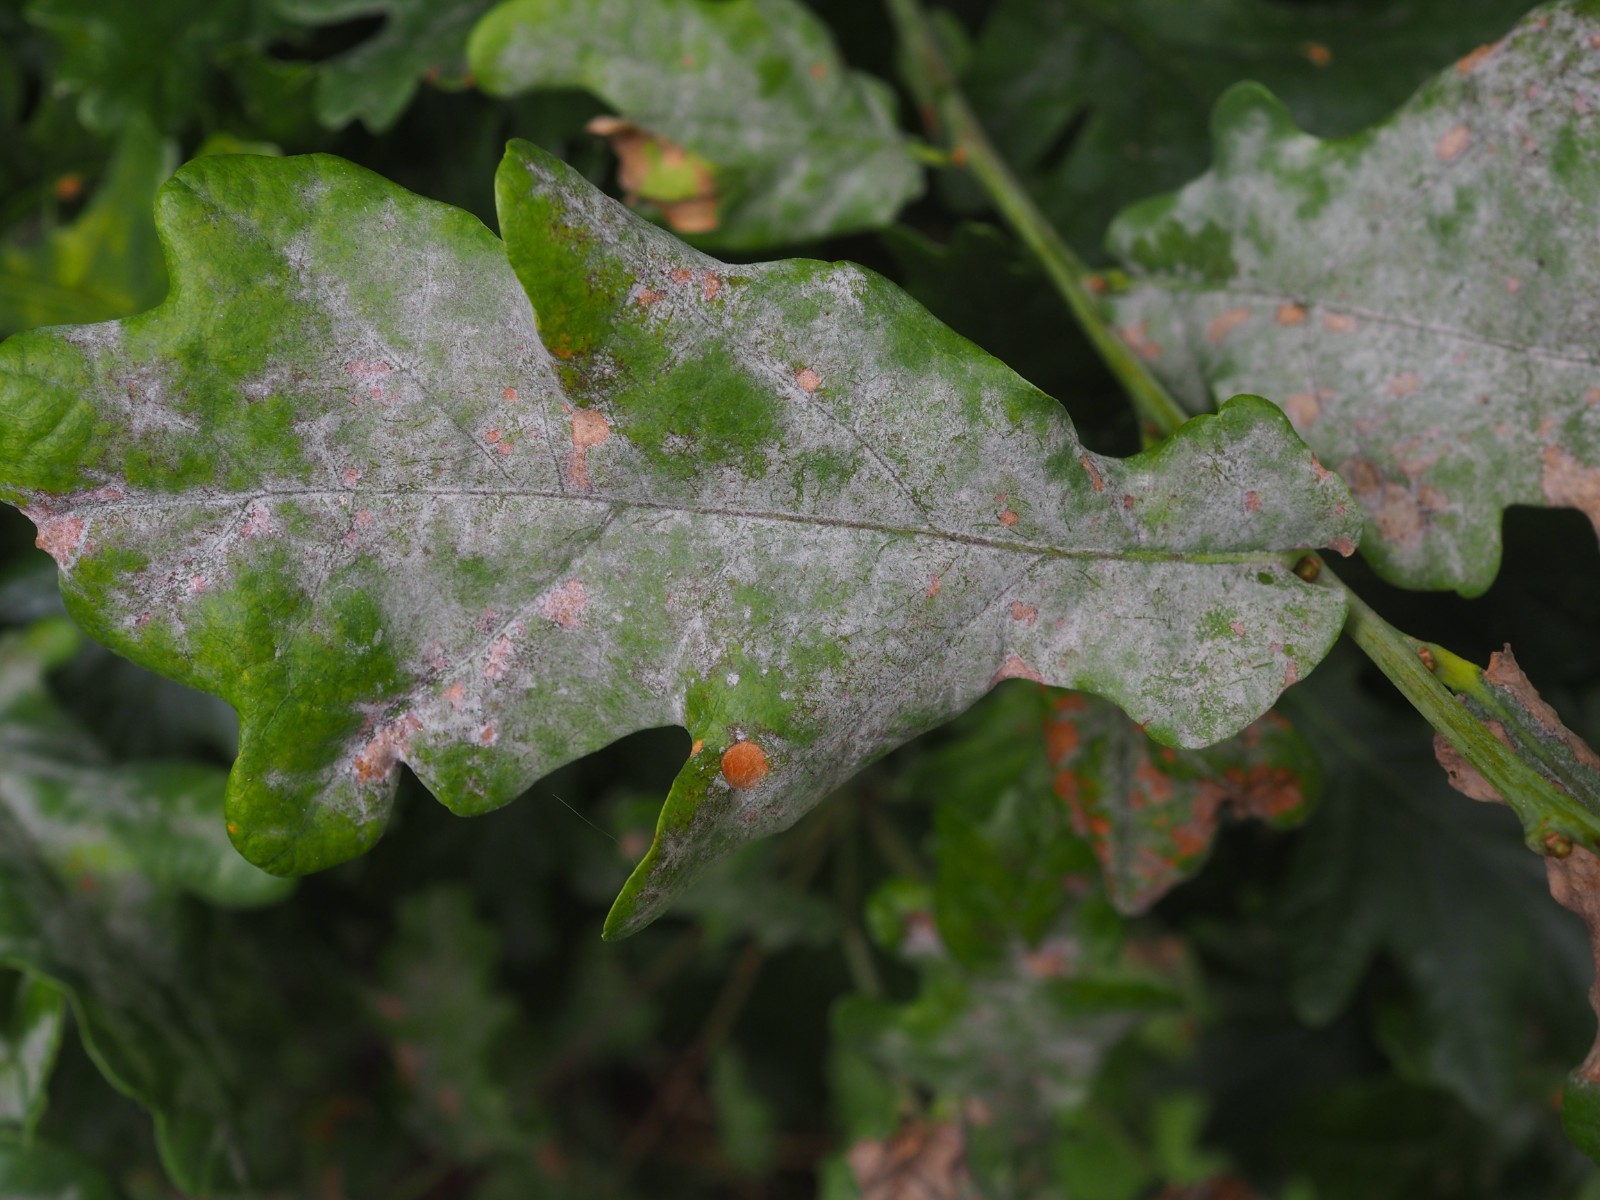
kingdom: Fungi
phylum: Ascomycota
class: Leotiomycetes
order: Helotiales
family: Erysiphaceae
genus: Erysiphe
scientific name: Erysiphe alphitoides
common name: ege-meldug
